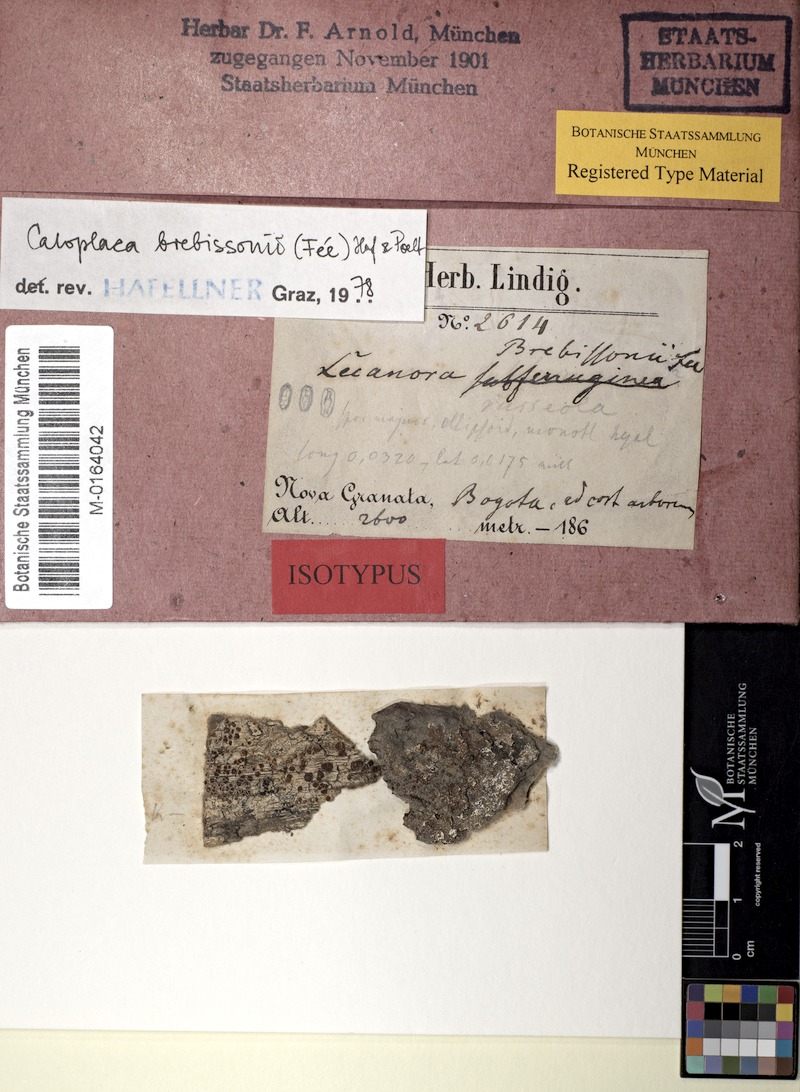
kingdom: Fungi
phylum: Ascomycota
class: Lecanoromycetes
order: Teloschistales
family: Teloschistaceae
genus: Caloplaca
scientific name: Caloplaca brebissonii
